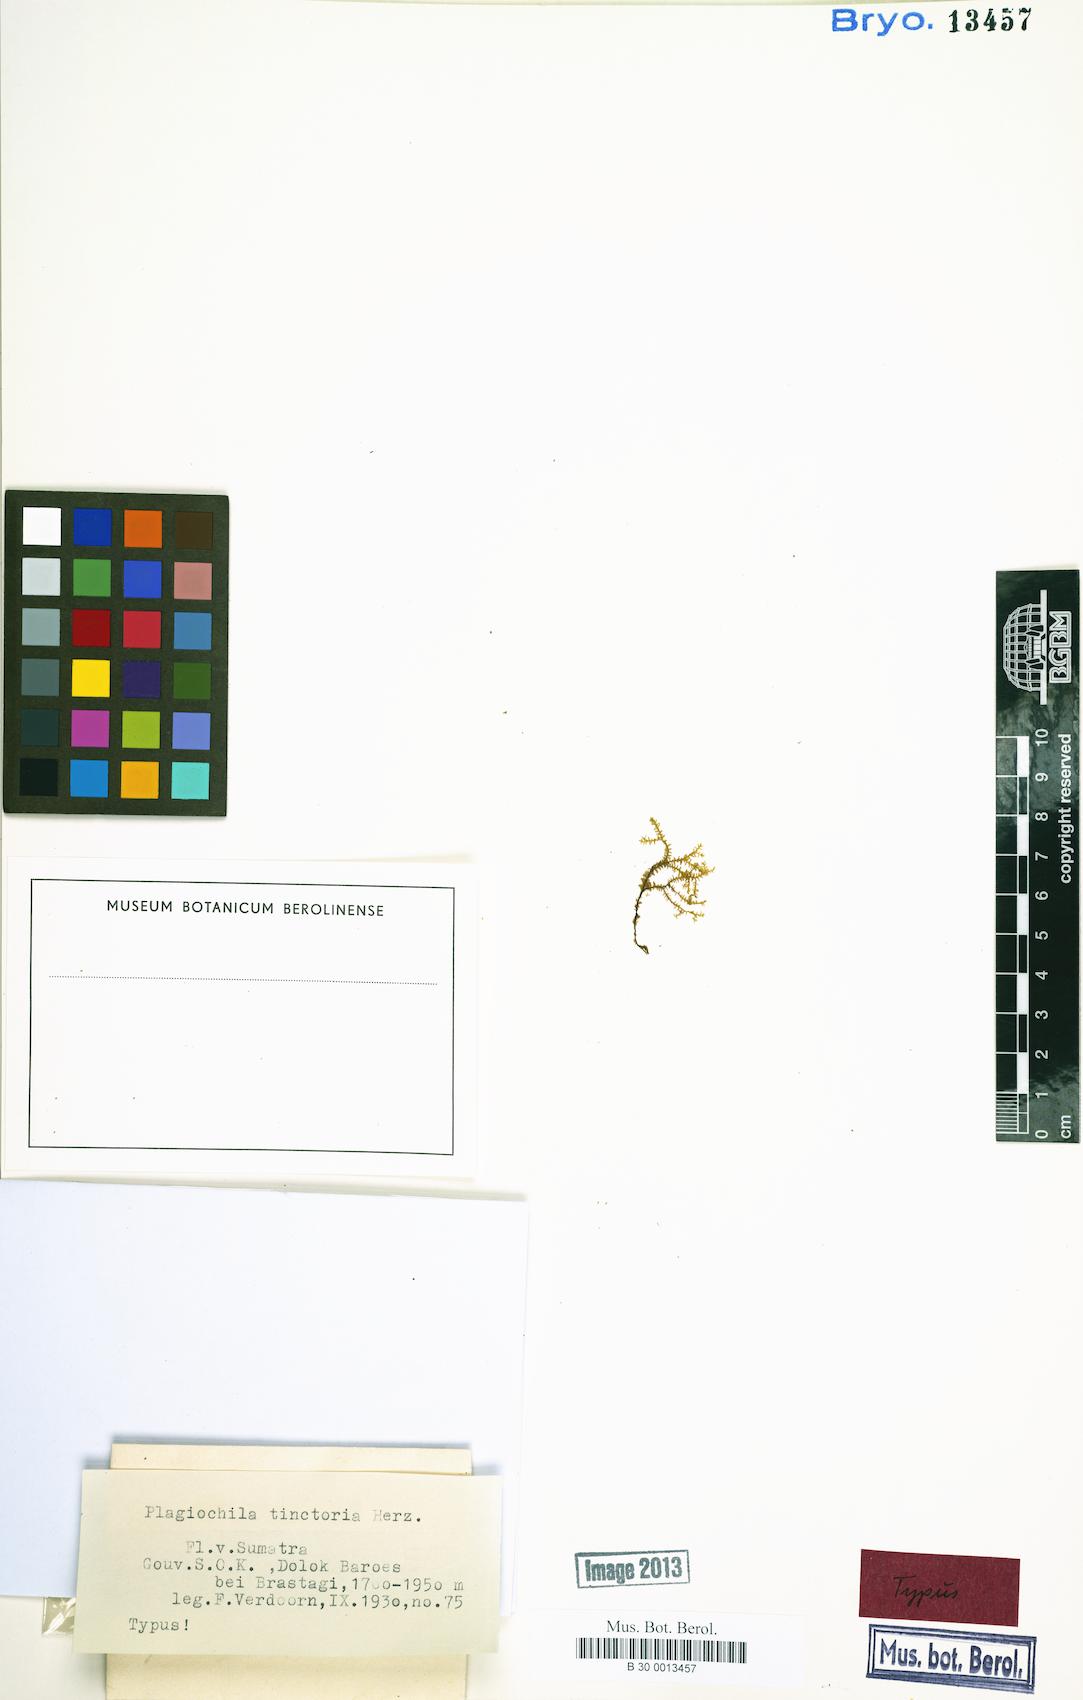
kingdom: Plantae
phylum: Marchantiophyta
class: Jungermanniopsida
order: Jungermanniales
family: Plagiochilaceae
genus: Plagiochila
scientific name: Plagiochila junghuhniana
